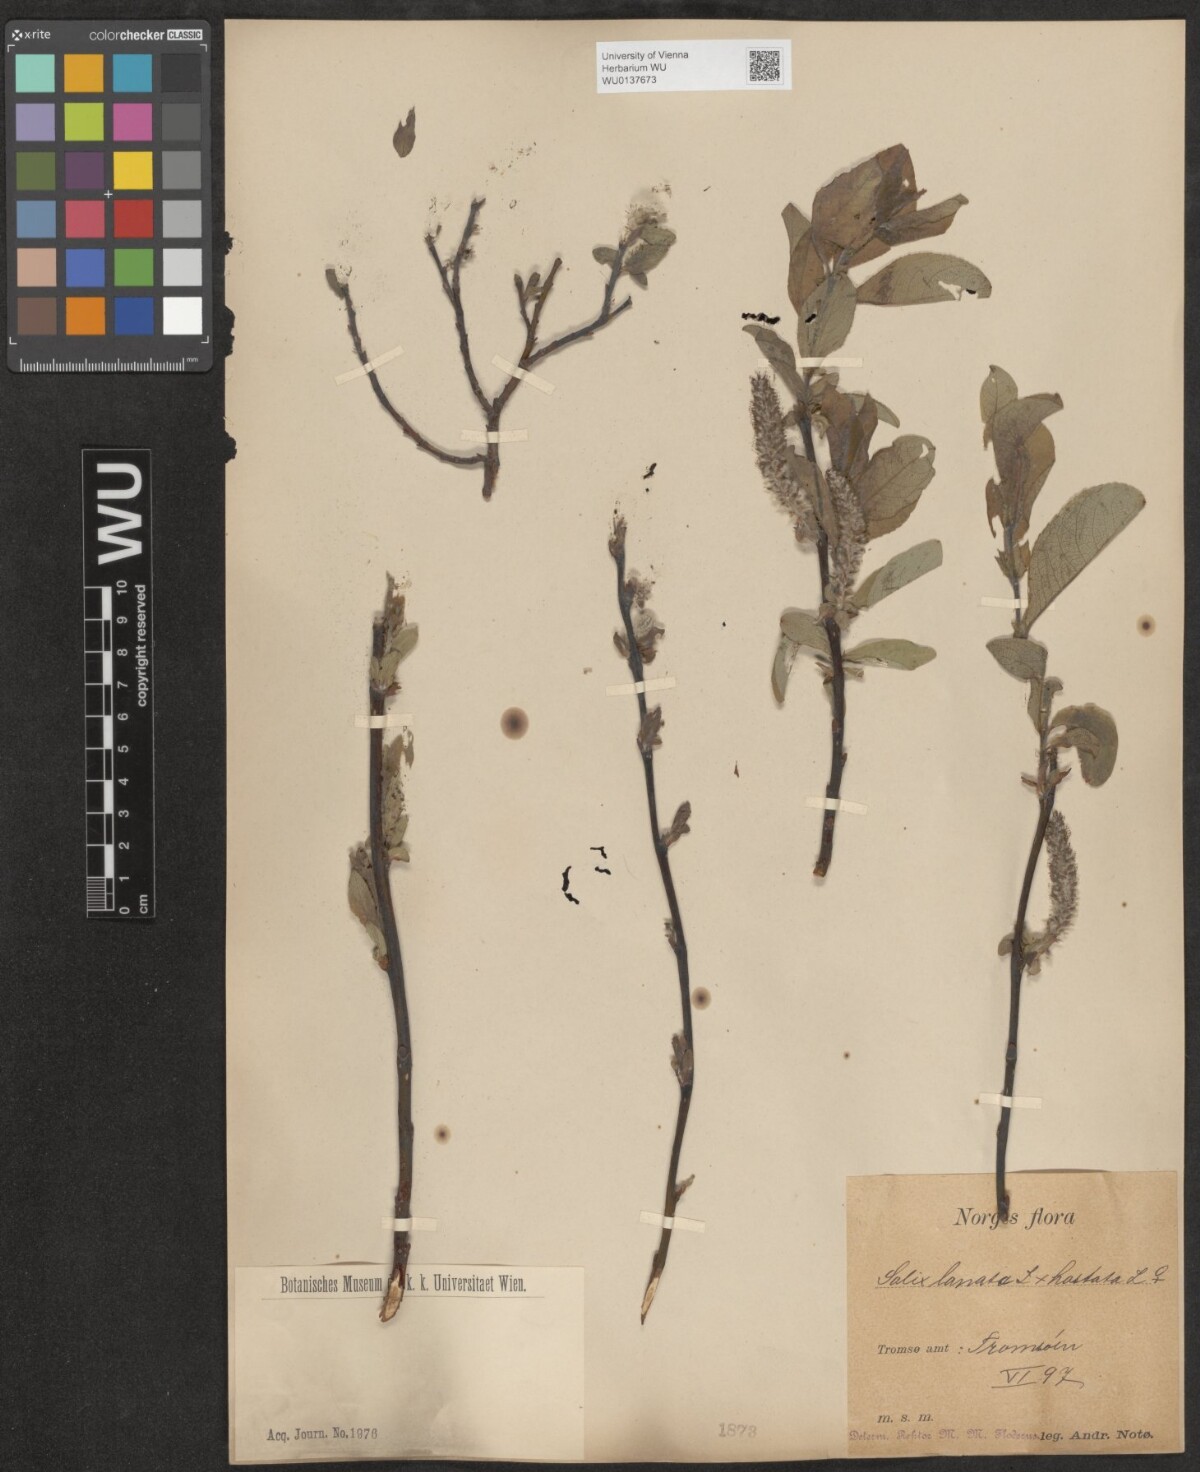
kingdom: Plantae
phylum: Tracheophyta
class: Magnoliopsida
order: Malpighiales
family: Salicaceae
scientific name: Salicaceae
